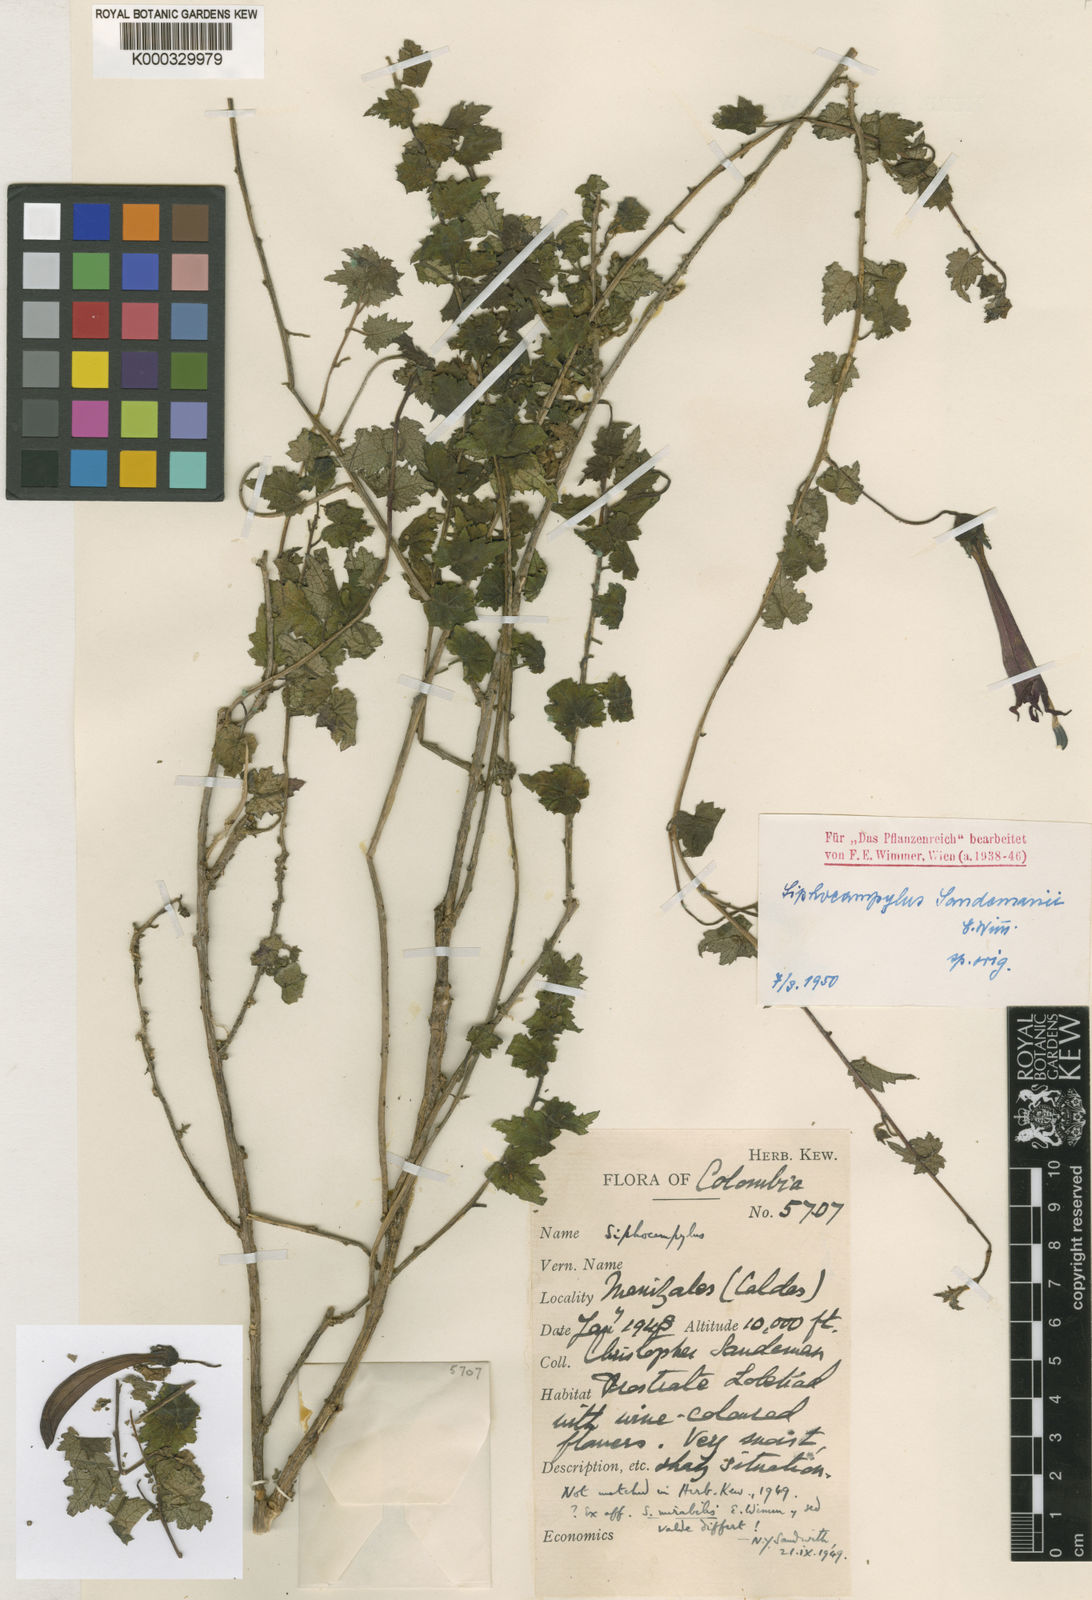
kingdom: Plantae
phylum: Tracheophyta
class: Magnoliopsida
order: Asterales
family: Campanulaceae
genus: Siphocampylus
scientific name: Siphocampylus mirabilis
